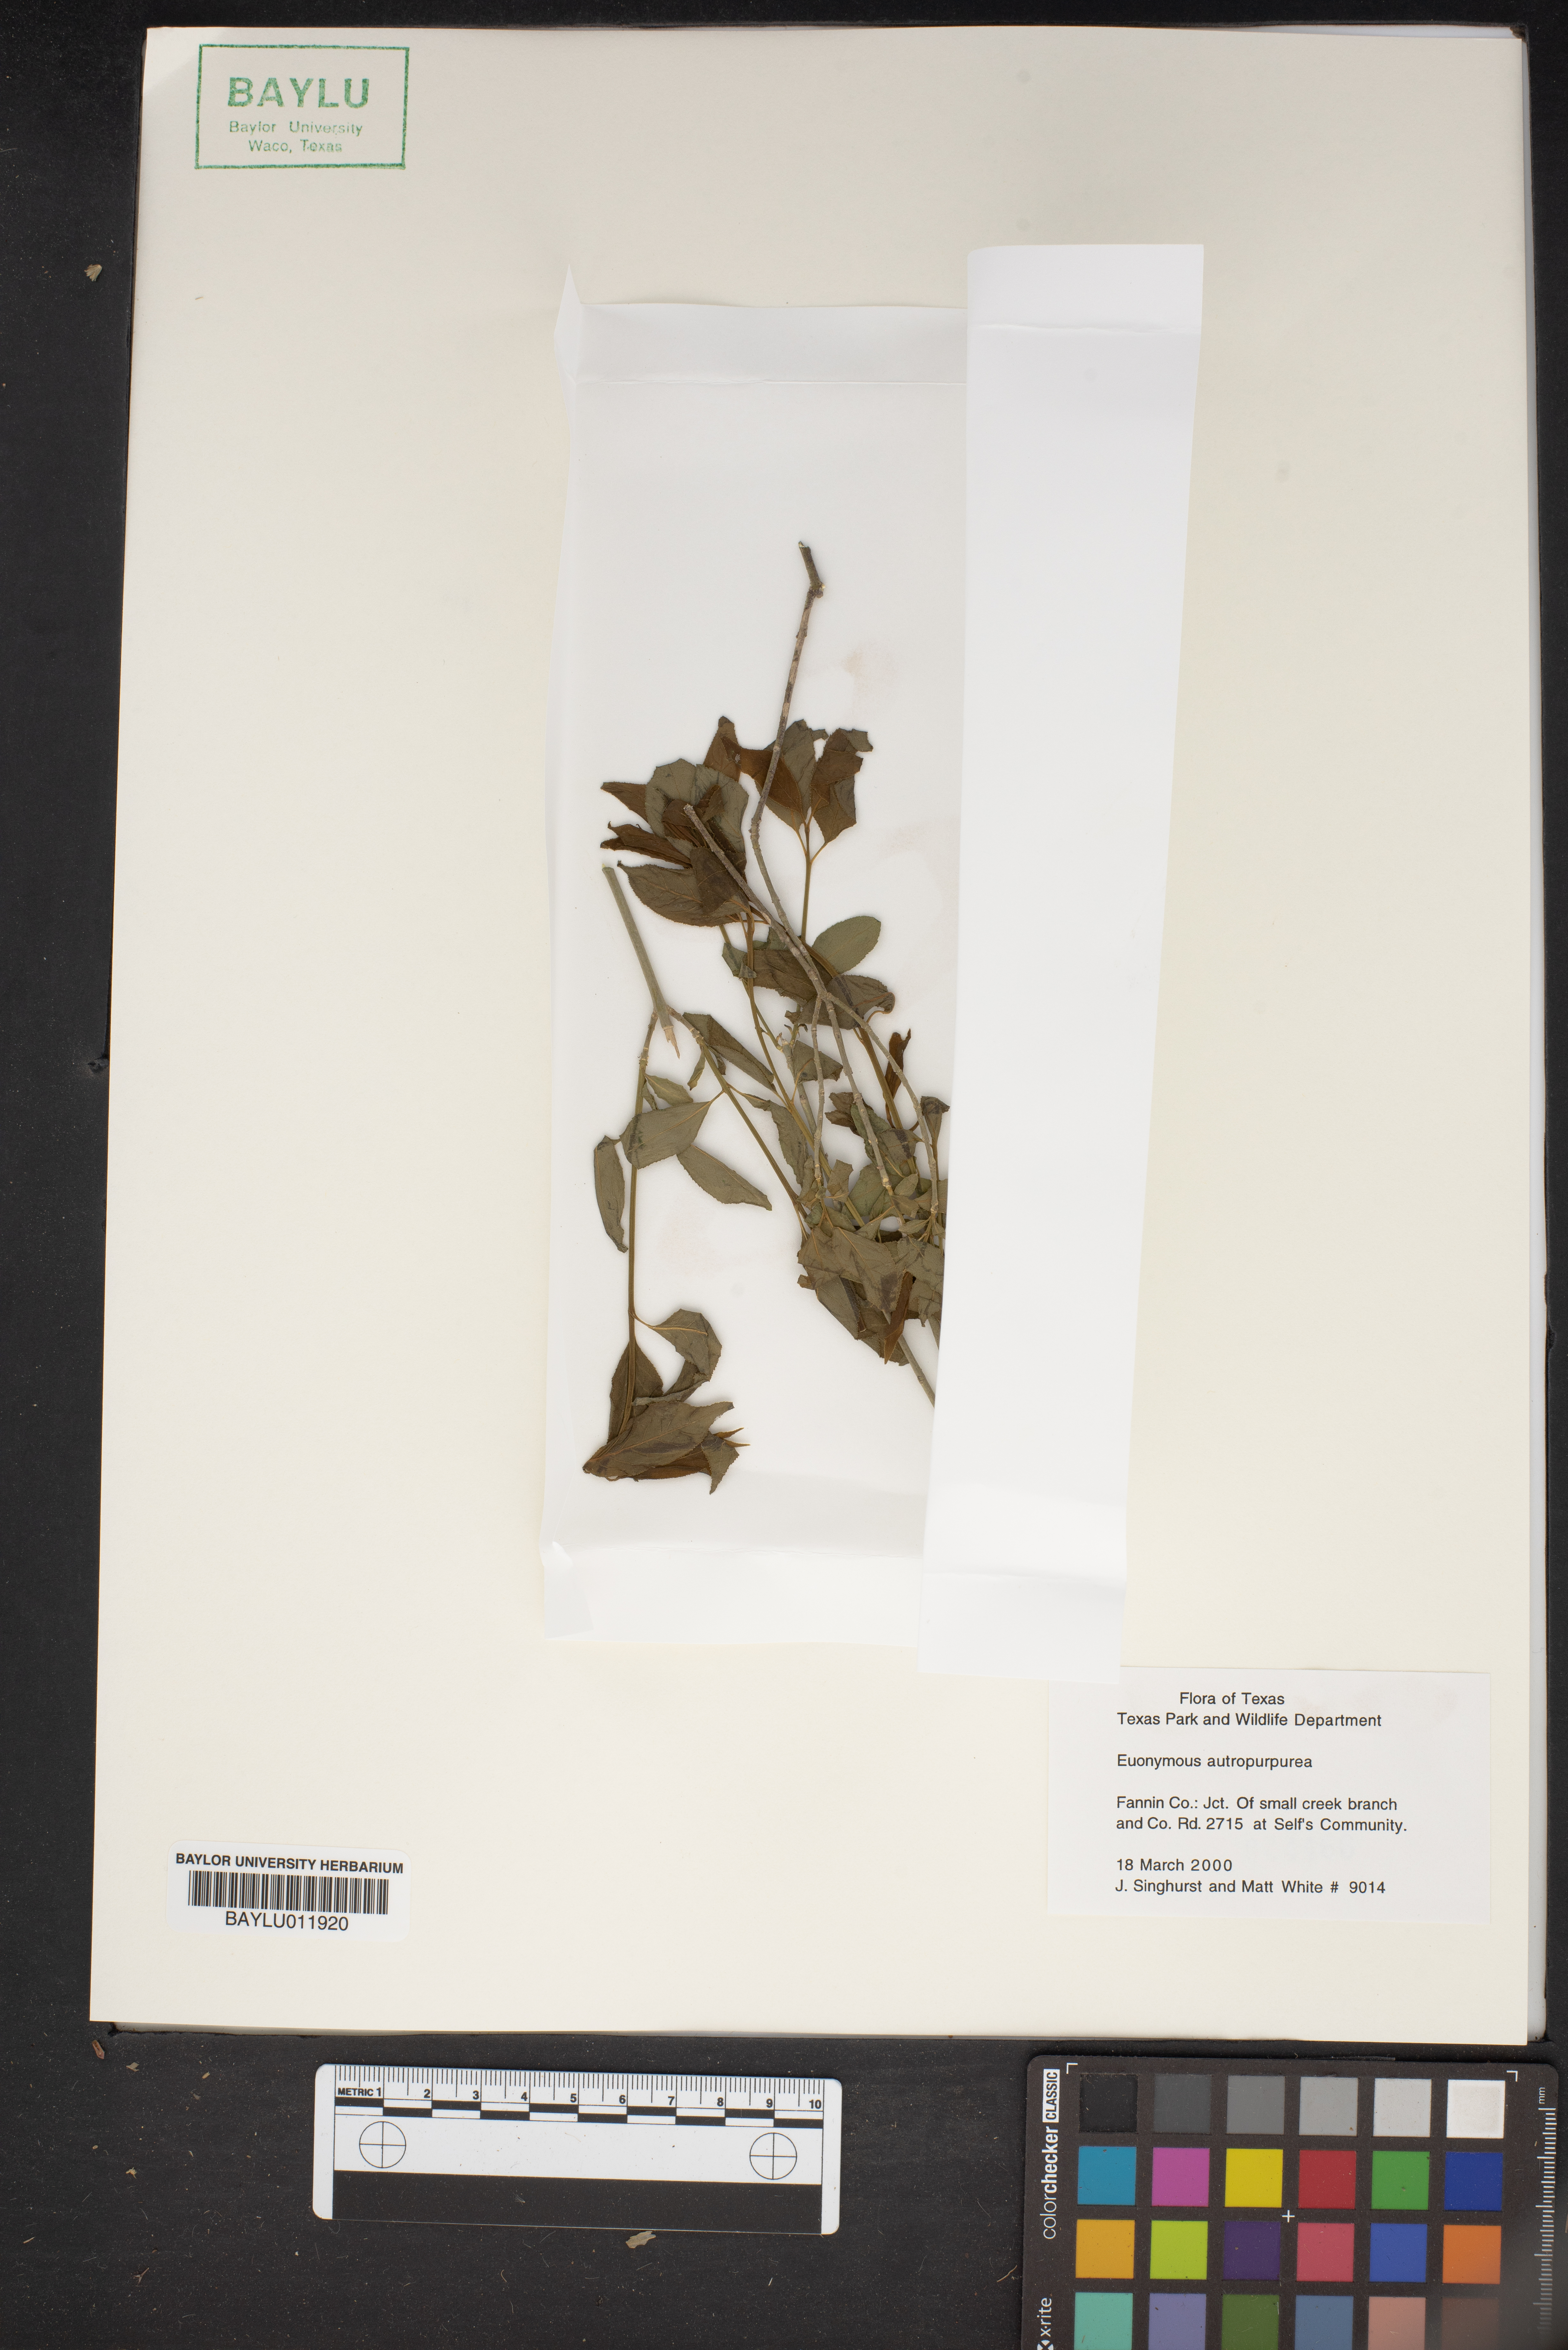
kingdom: Plantae
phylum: Tracheophyta
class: Magnoliopsida
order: Celastrales
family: Celastraceae
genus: Euonymus
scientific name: Euonymus atropurpureus
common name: Eastern wahoo
